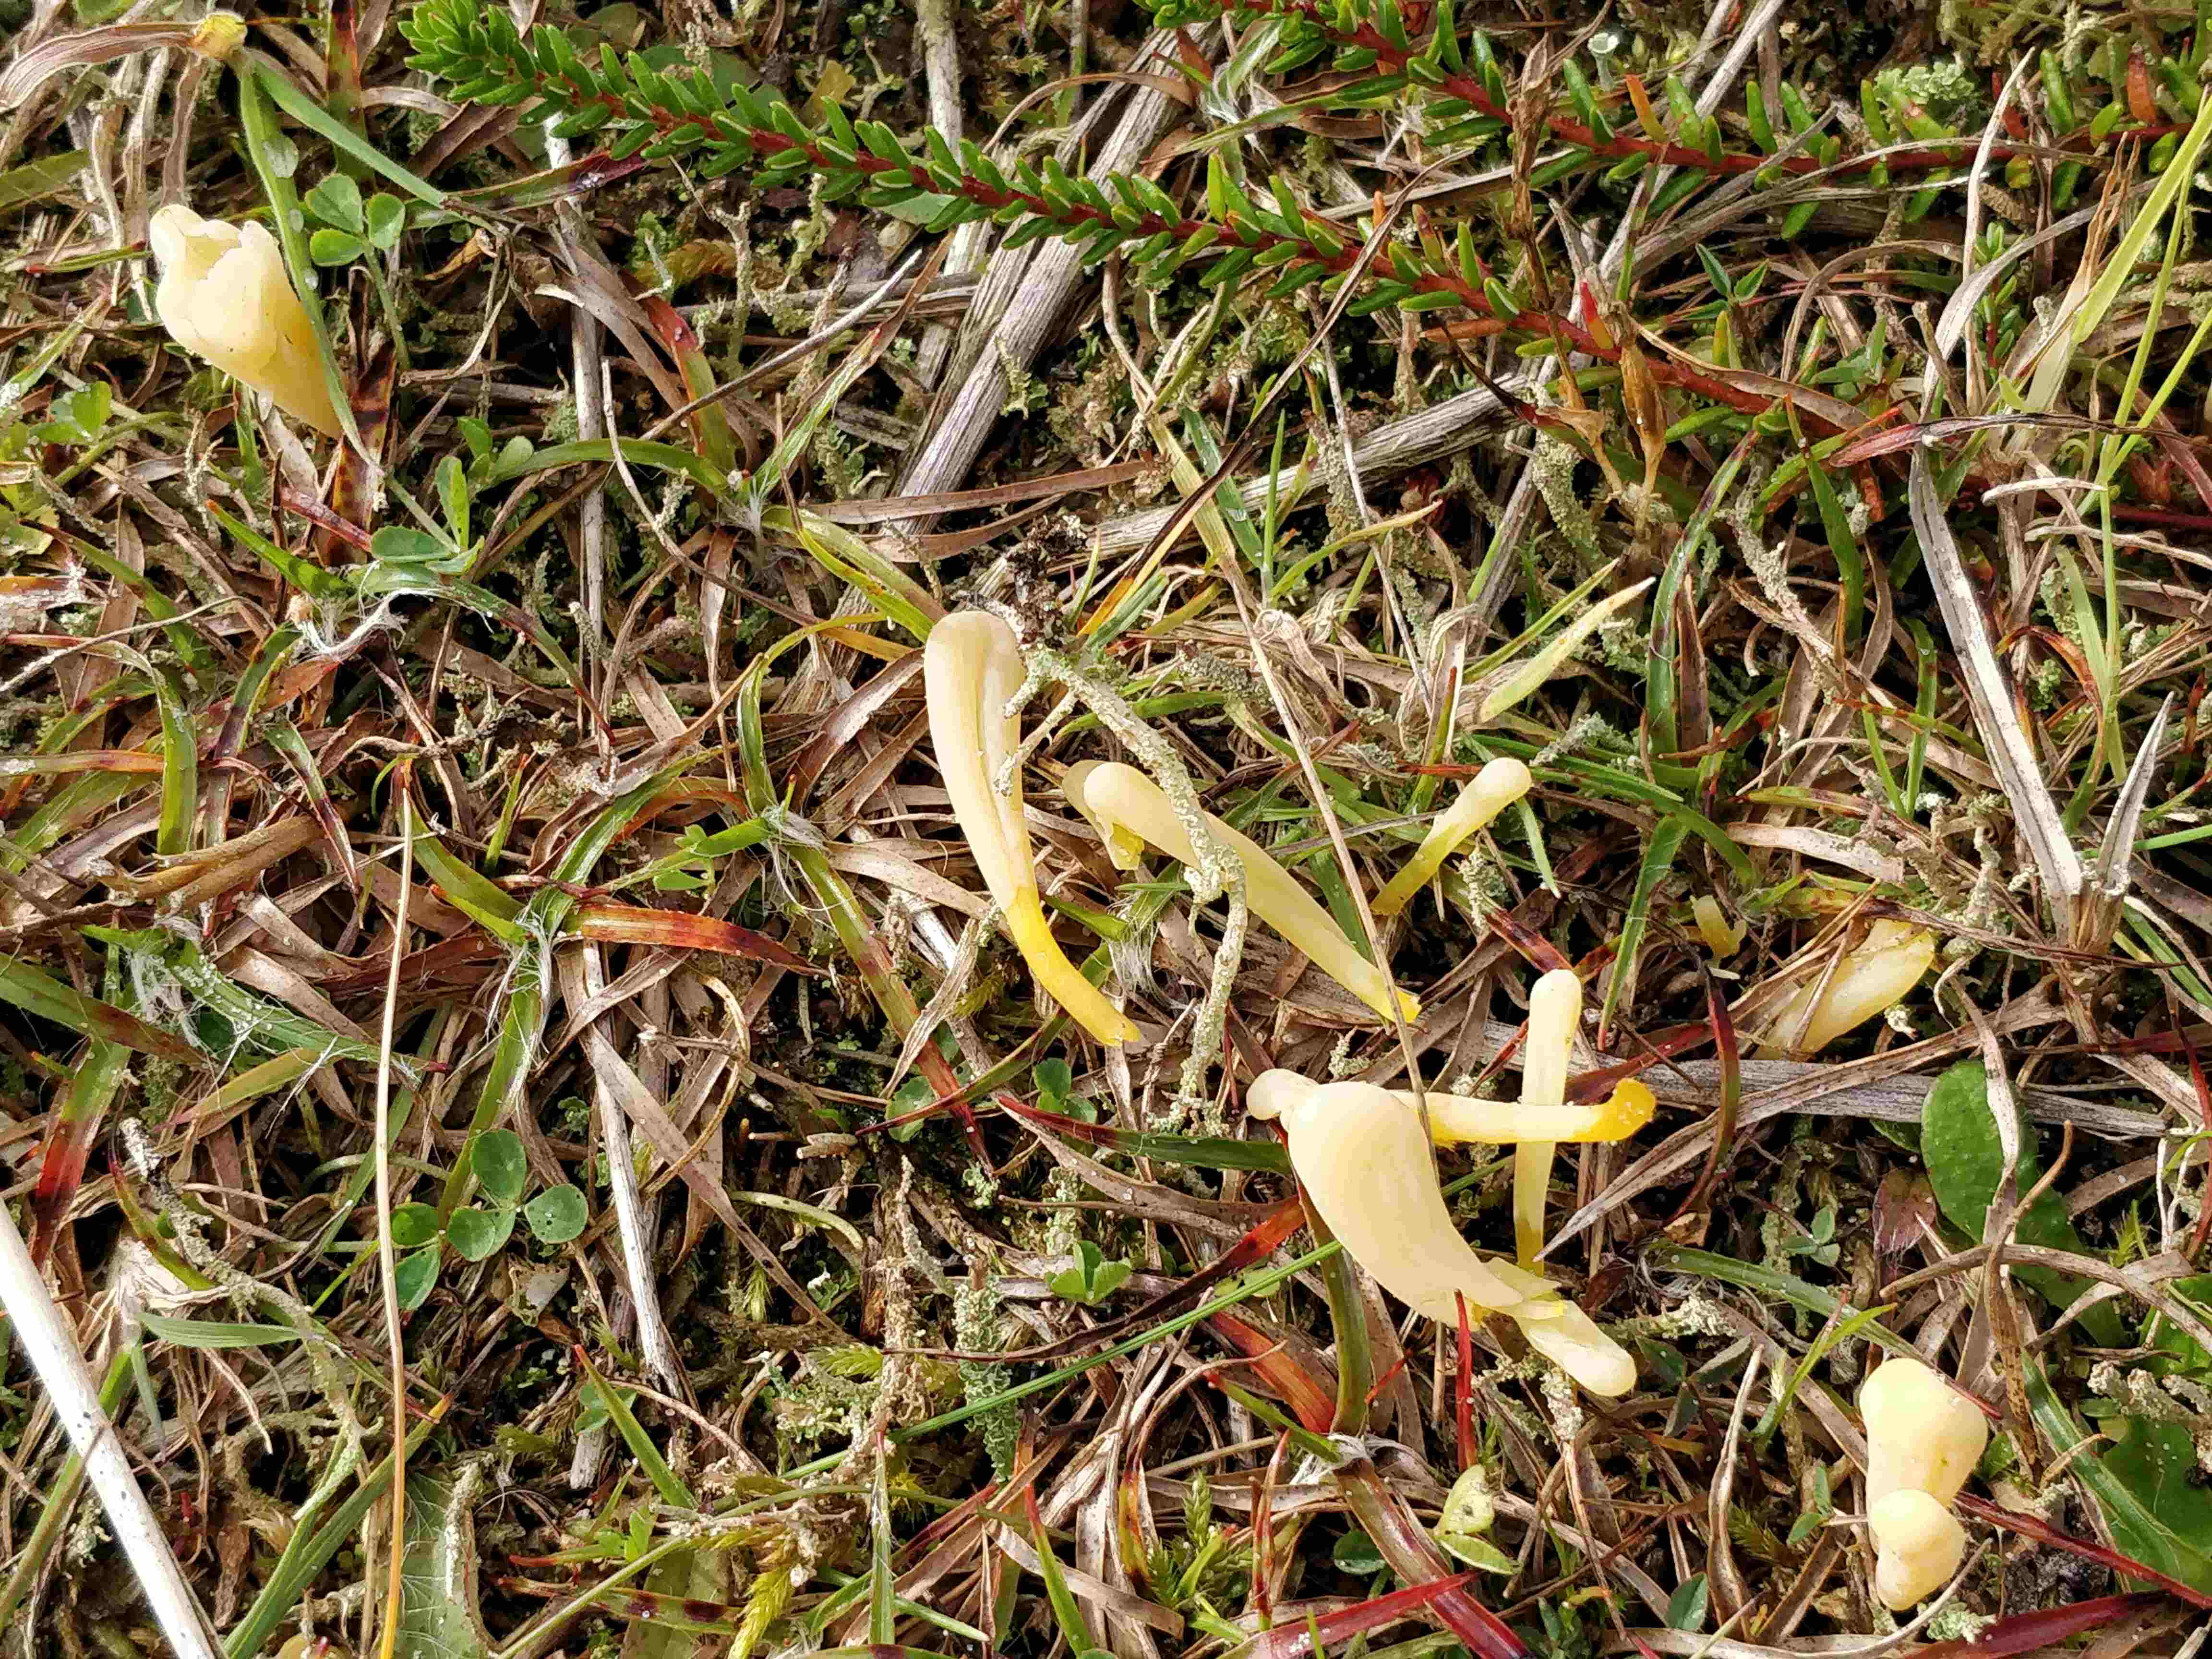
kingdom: Fungi
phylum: Basidiomycota
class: Agaricomycetes
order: Agaricales
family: Clavariaceae
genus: Clavaria
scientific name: Clavaria argillacea
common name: lerfarvet køllesvamp
